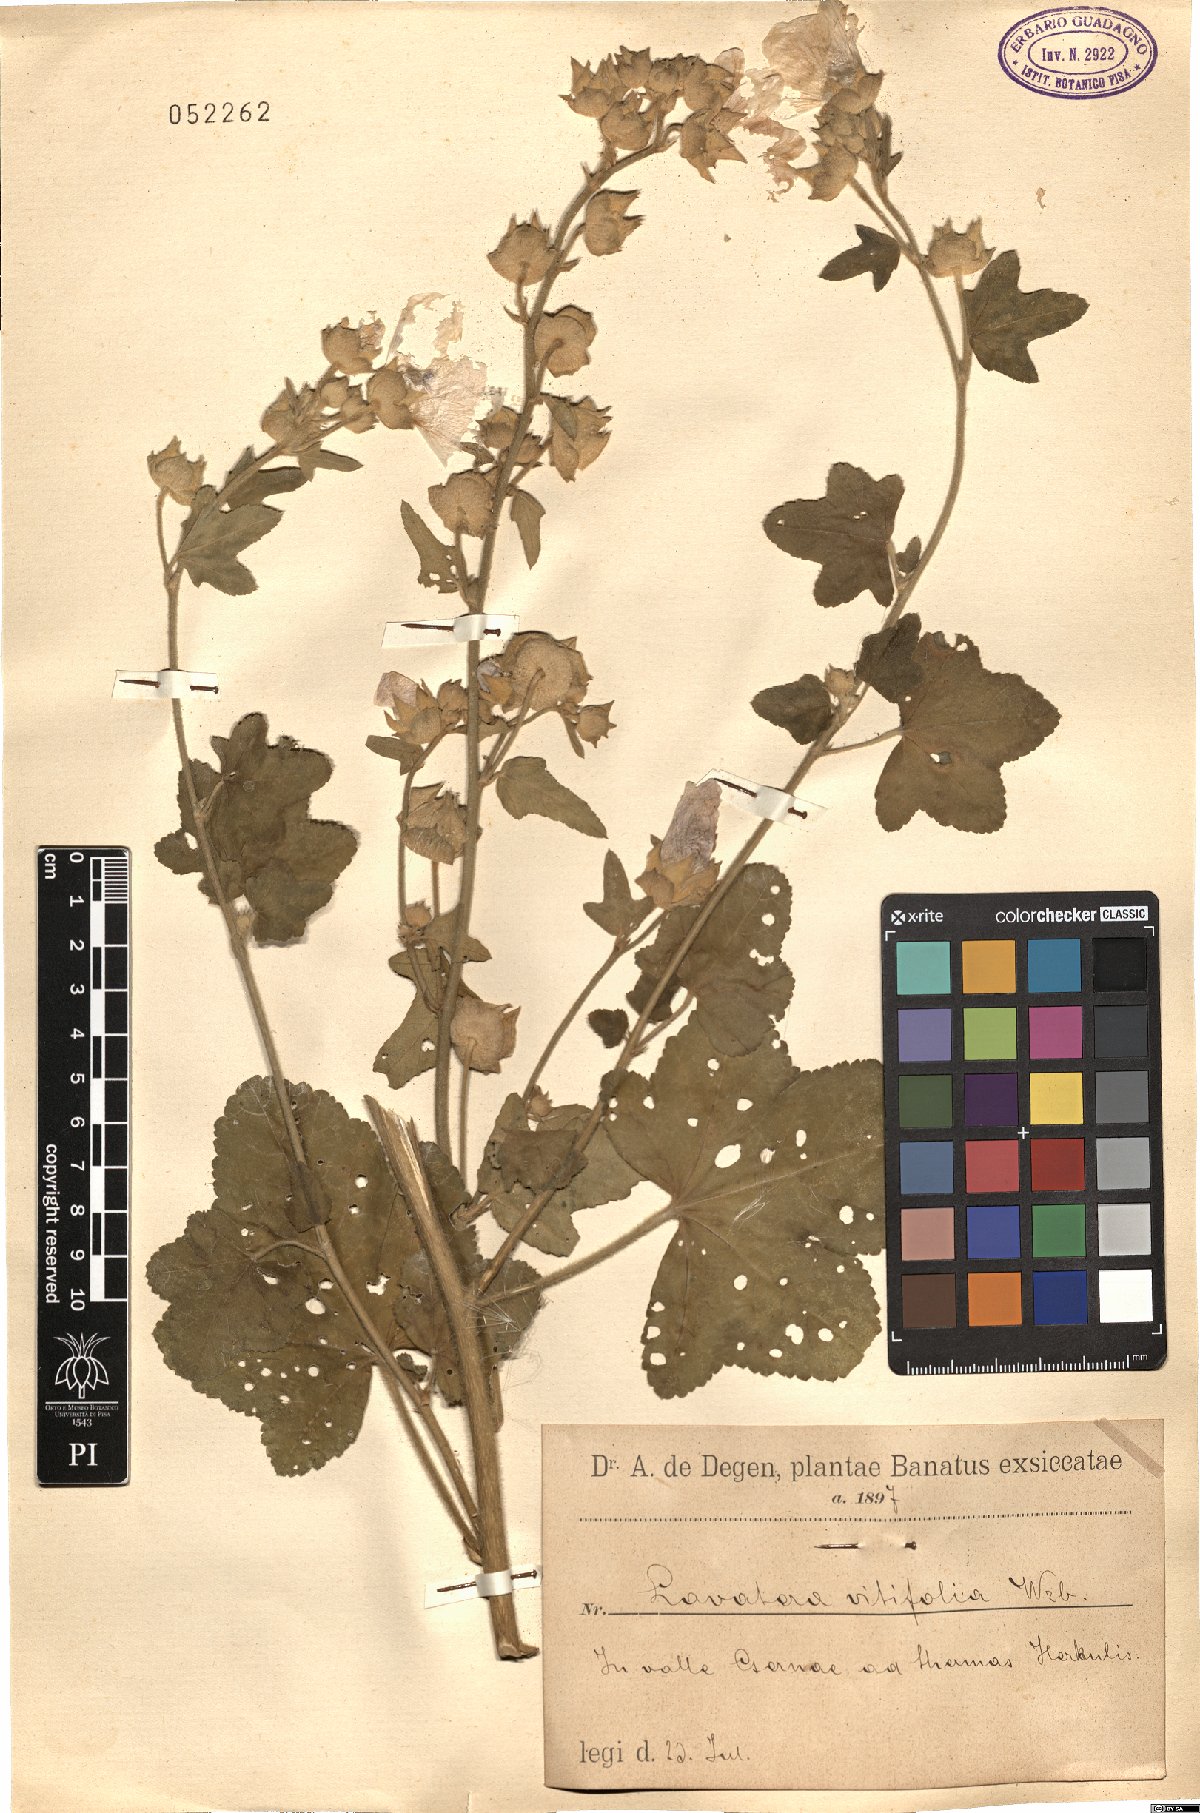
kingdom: Plantae
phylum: Tracheophyta
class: Magnoliopsida
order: Malvales
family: Malvaceae
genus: Malva
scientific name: Malva thuringiaca
